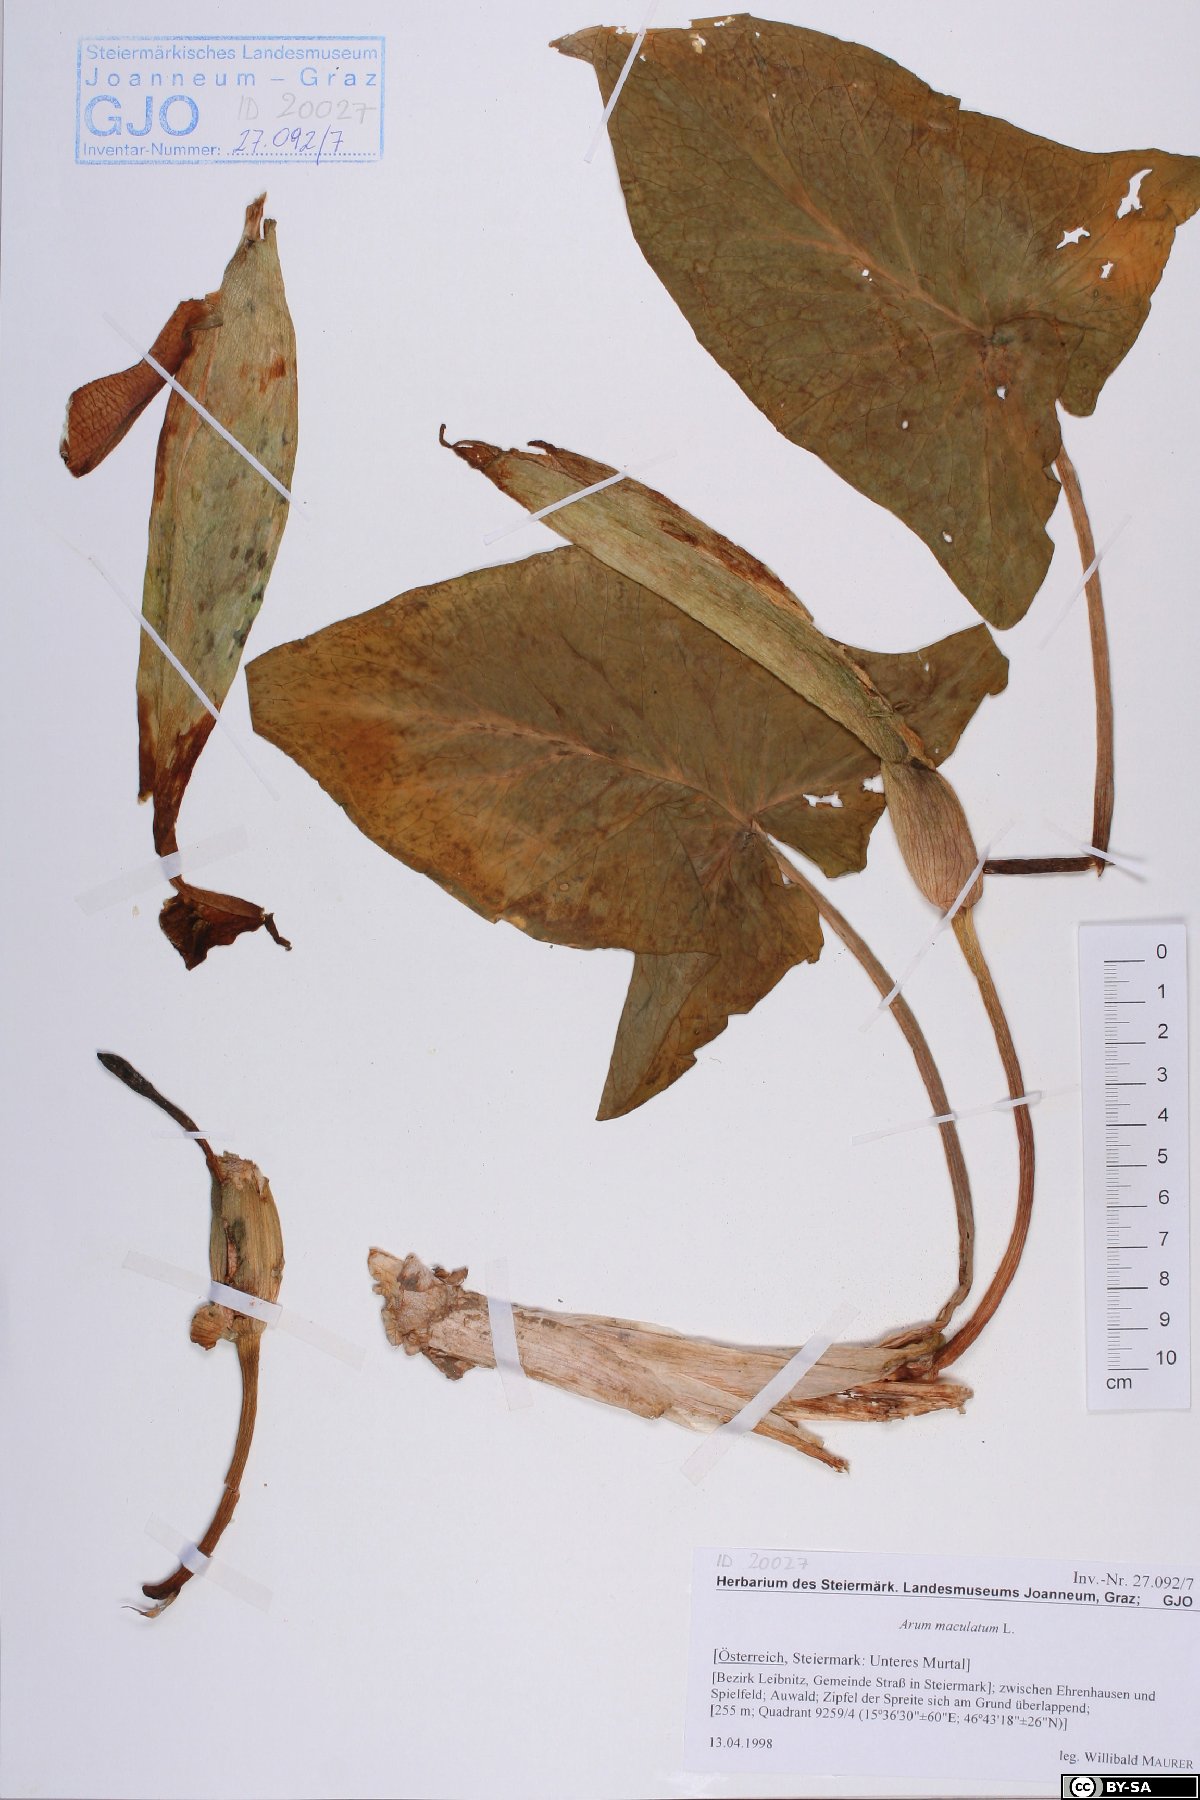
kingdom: Plantae
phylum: Tracheophyta
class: Liliopsida
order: Alismatales
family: Araceae
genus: Arum
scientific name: Arum maculatum
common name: Lords-and-ladies
